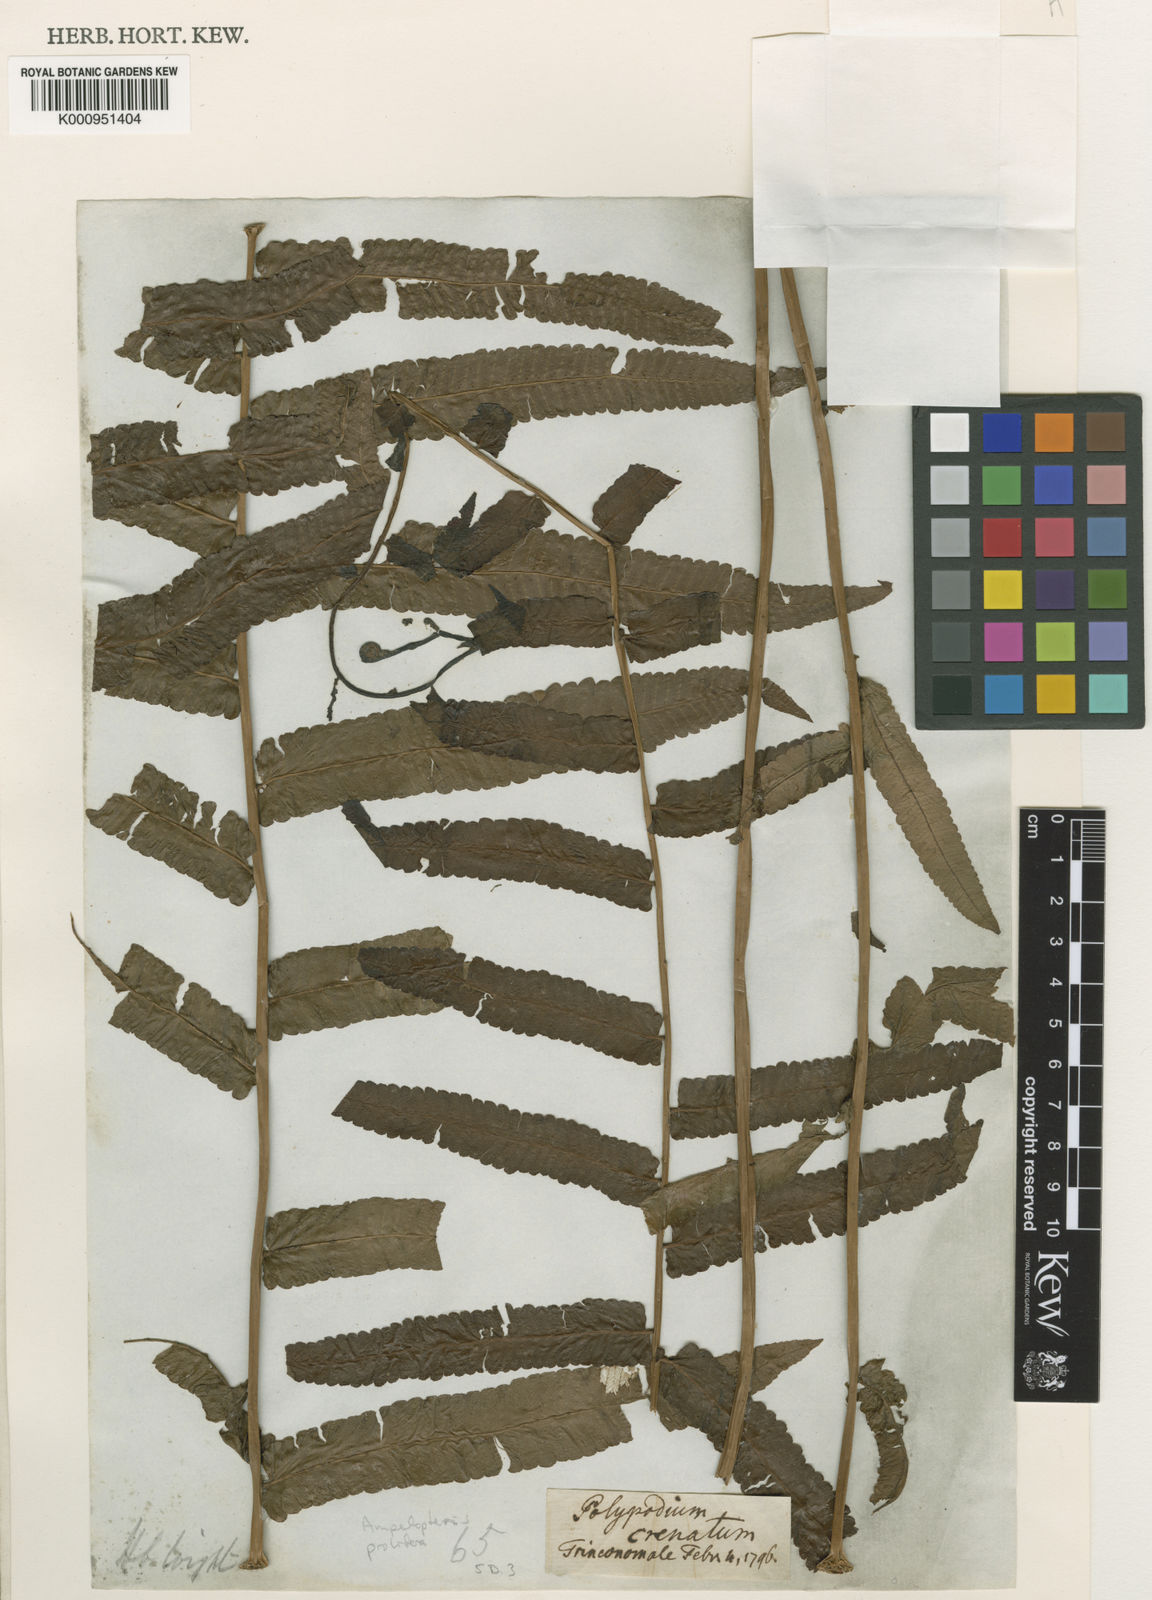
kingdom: Plantae
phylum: Tracheophyta
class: Polypodiopsida
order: Polypodiales
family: Thelypteridaceae
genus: Ampelopteris
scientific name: Ampelopteris prolifera
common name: Riverine scrambler
